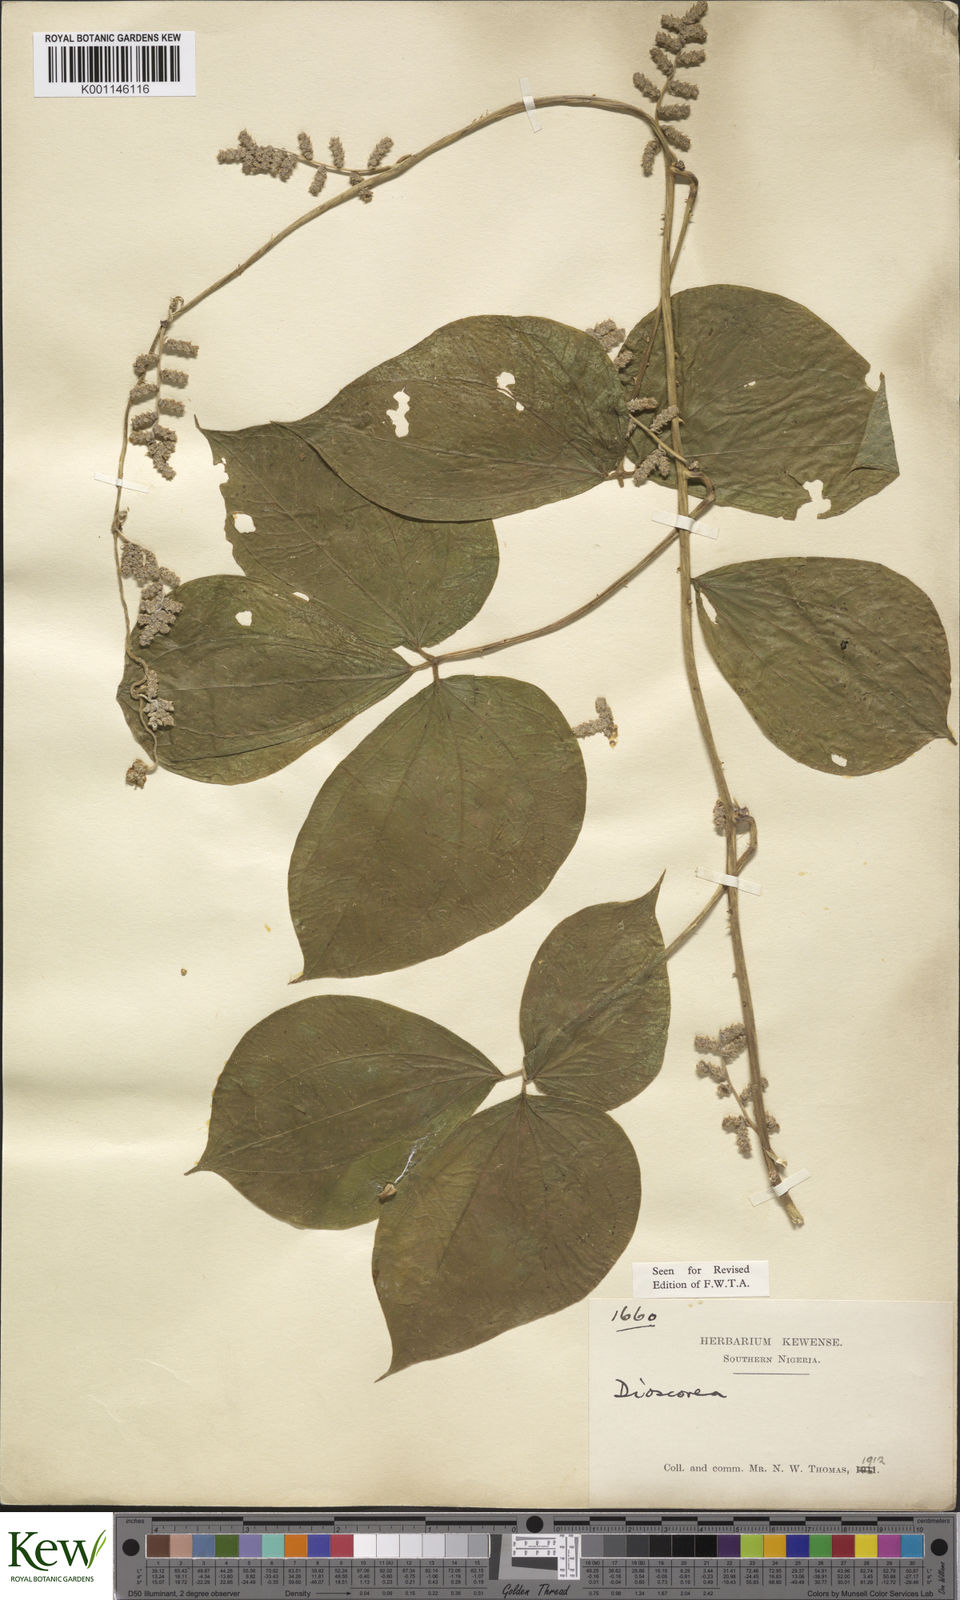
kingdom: Plantae
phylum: Tracheophyta
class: Liliopsida
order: Dioscoreales
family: Dioscoreaceae
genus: Dioscorea
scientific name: Dioscorea
